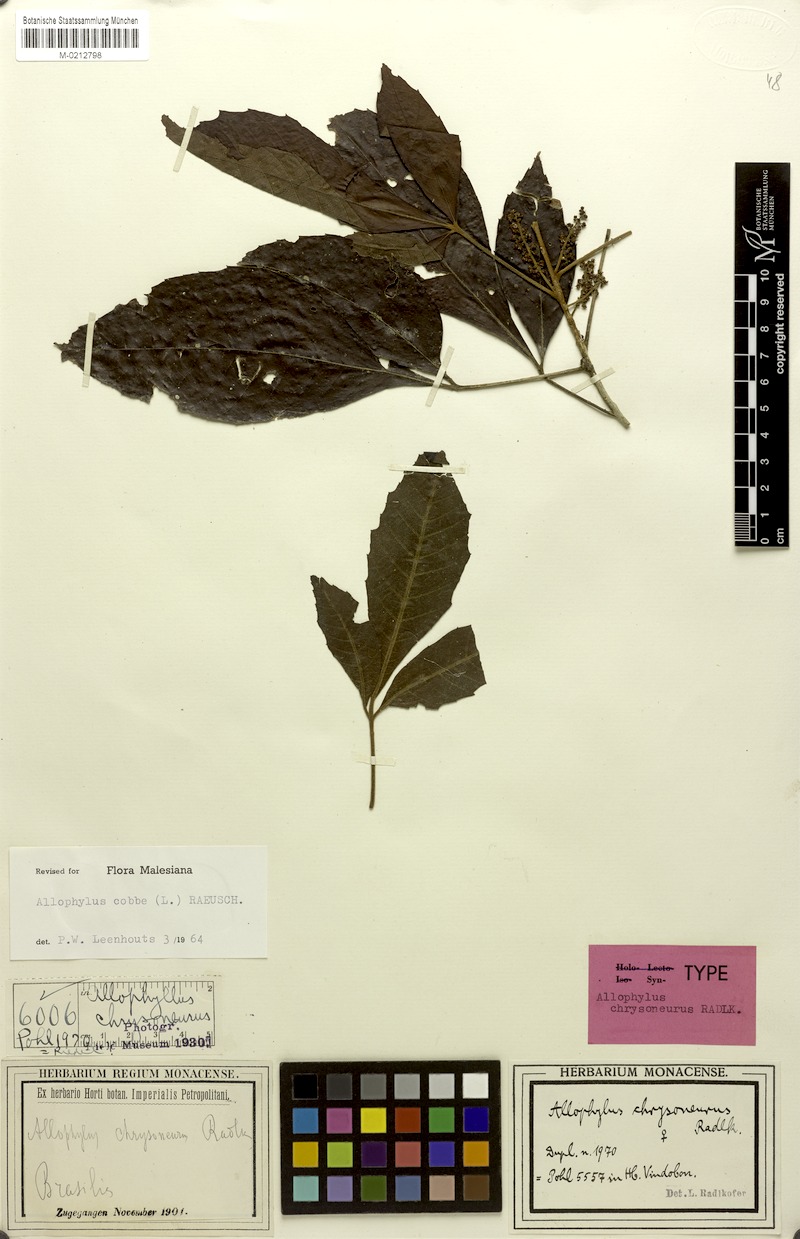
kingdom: Plantae
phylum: Tracheophyta
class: Magnoliopsida
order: Sapindales
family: Sapindaceae
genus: Allophylus
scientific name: Allophylus racemosus
